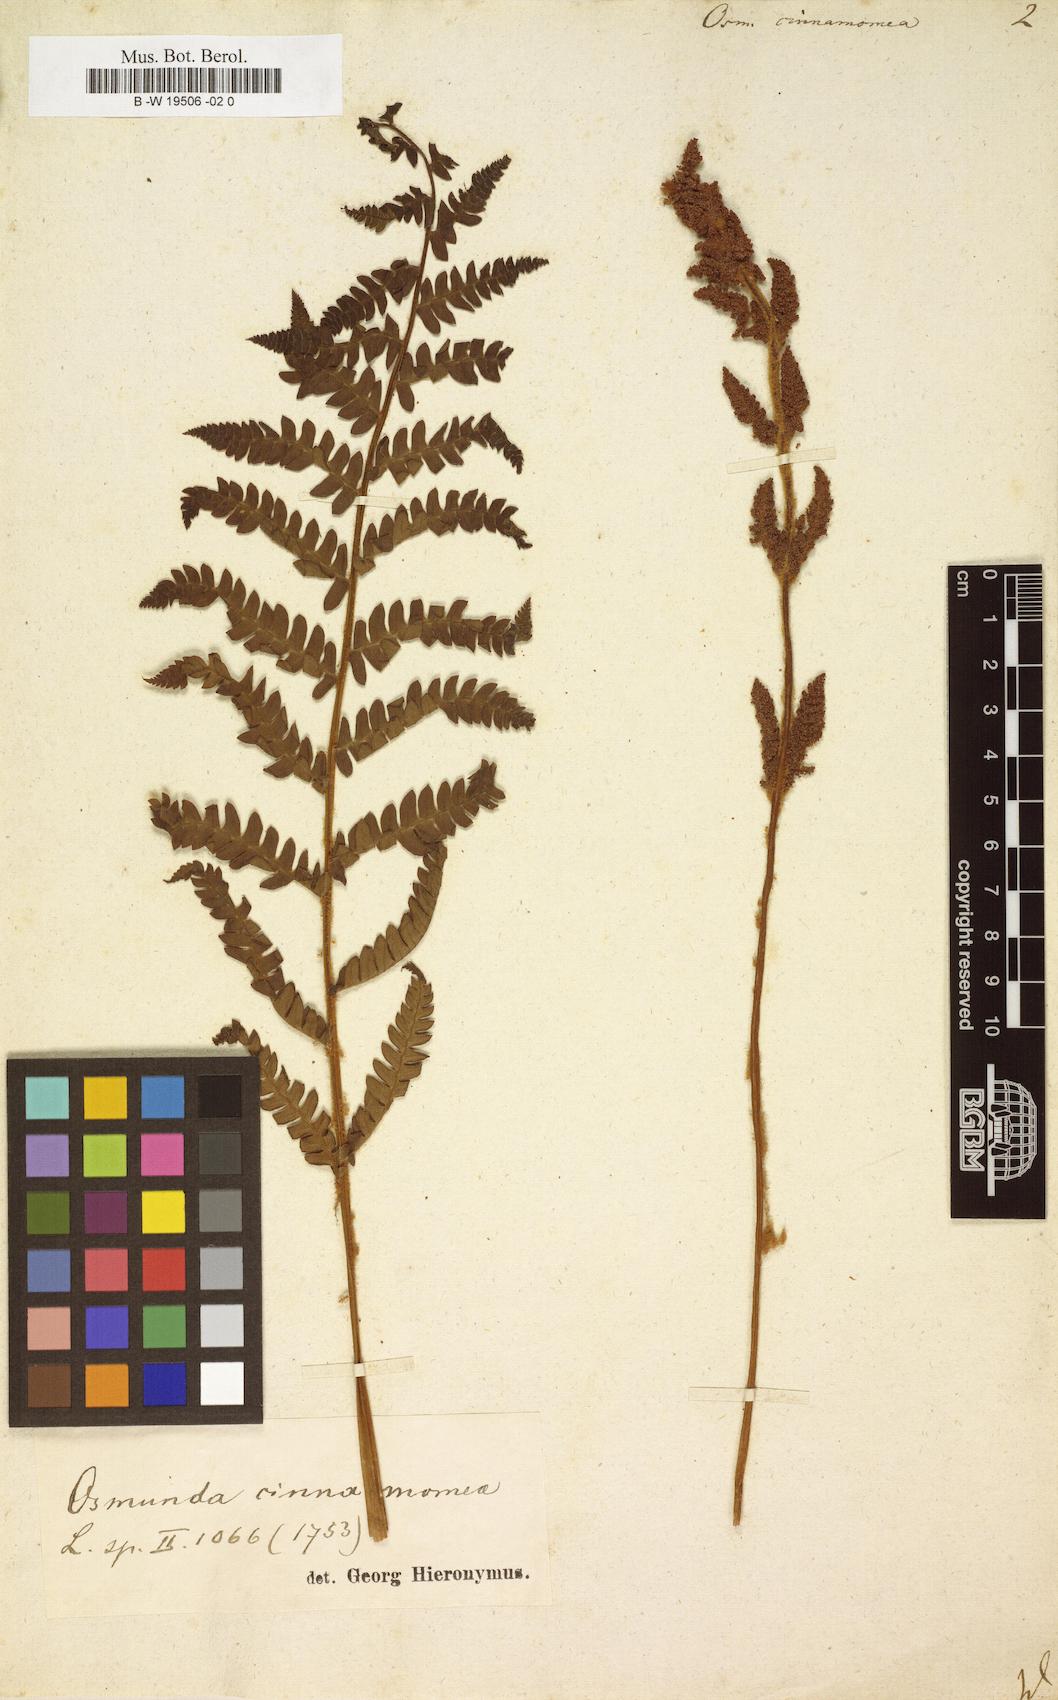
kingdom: Plantae
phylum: Tracheophyta
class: Polypodiopsida
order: Osmundales
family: Osmundaceae
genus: Osmundastrum
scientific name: Osmundastrum cinnamomeum
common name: Cinnamon fern
